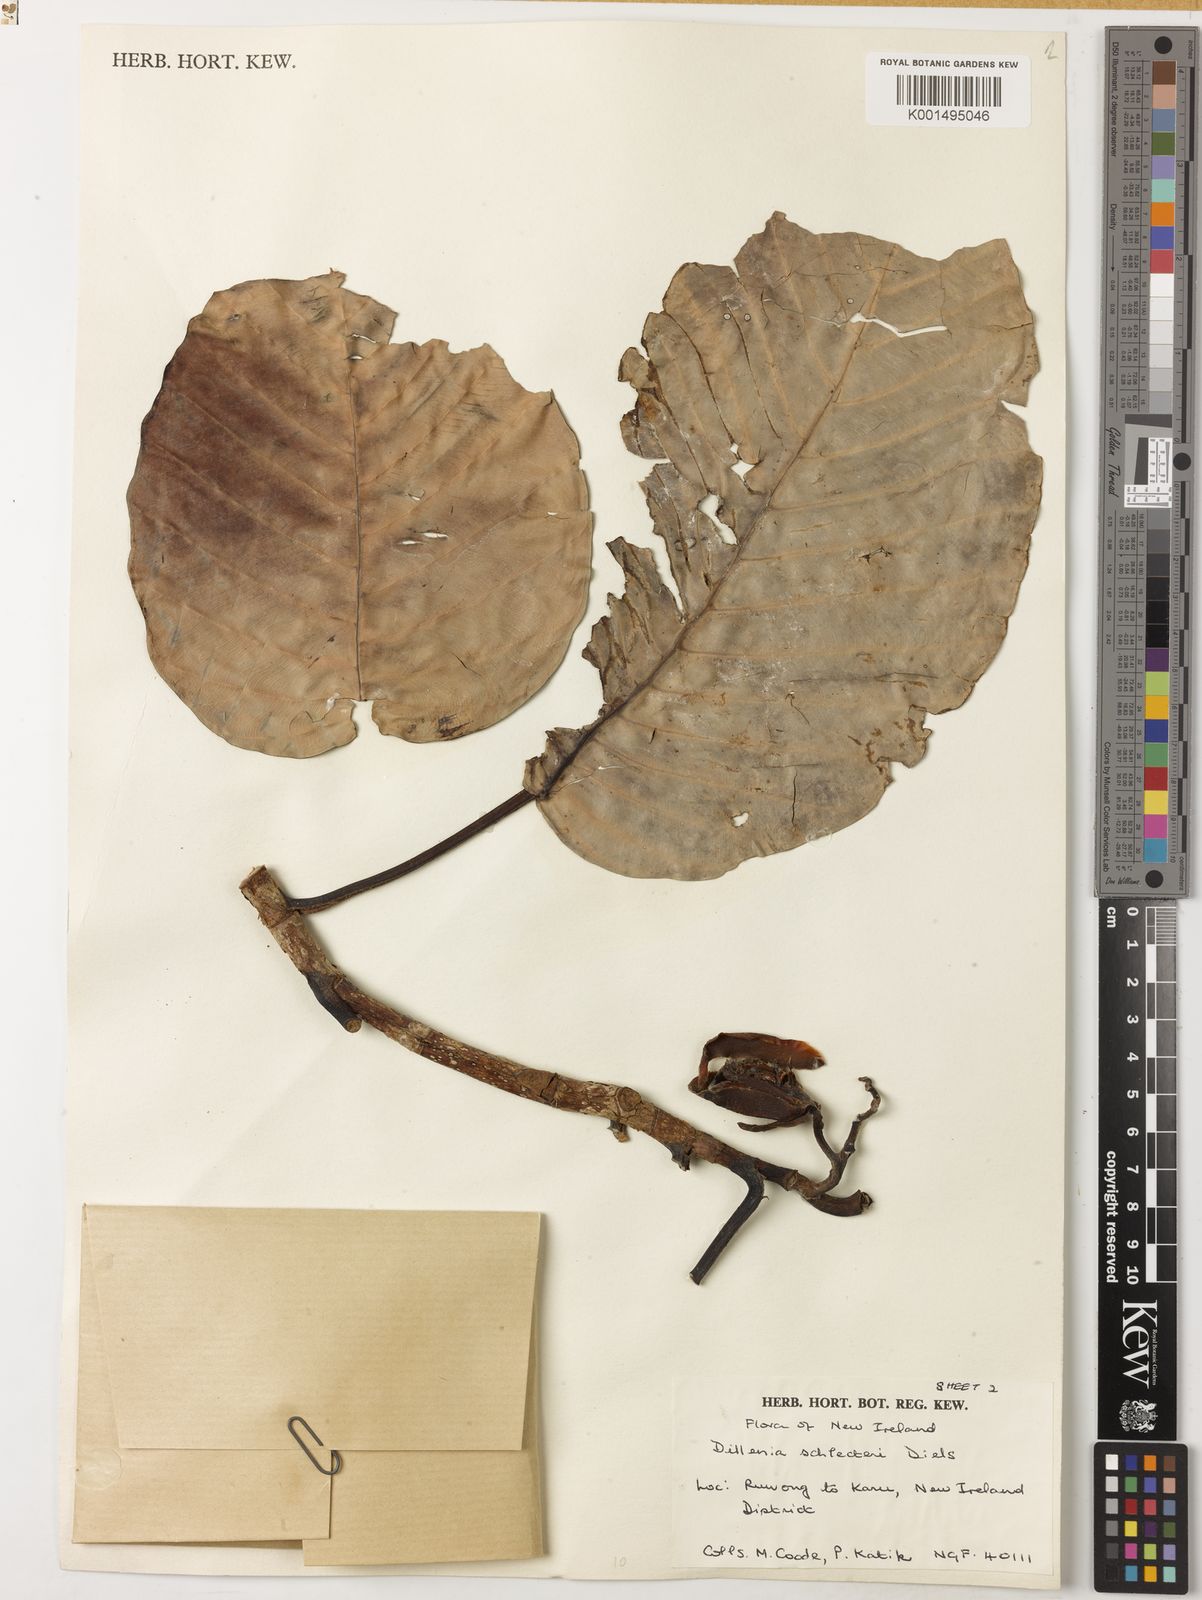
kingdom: Plantae
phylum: Tracheophyta
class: Magnoliopsida
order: Dilleniales
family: Dilleniaceae
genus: Dillenia
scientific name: Dillenia schlechteri
